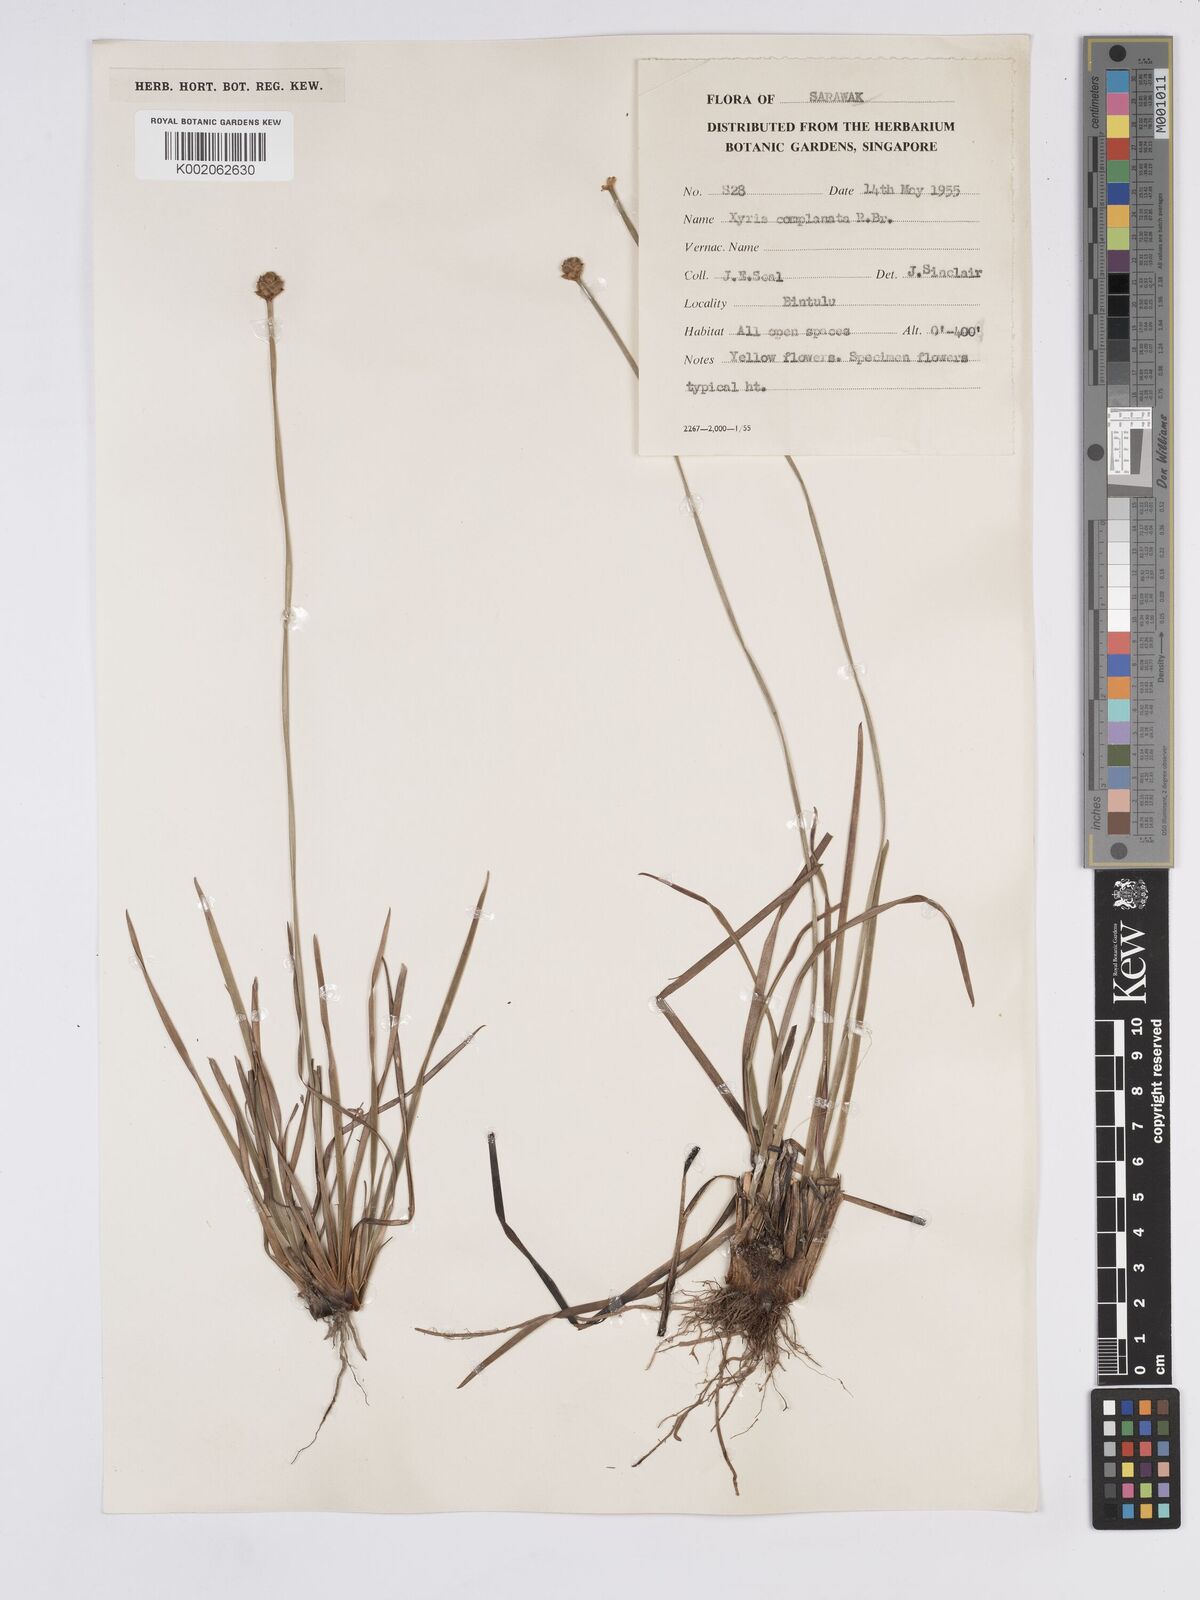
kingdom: Plantae
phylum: Tracheophyta
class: Liliopsida
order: Poales
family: Xyridaceae
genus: Xyris
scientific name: Xyris complanata
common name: Hawai'i yelloweyed grass
